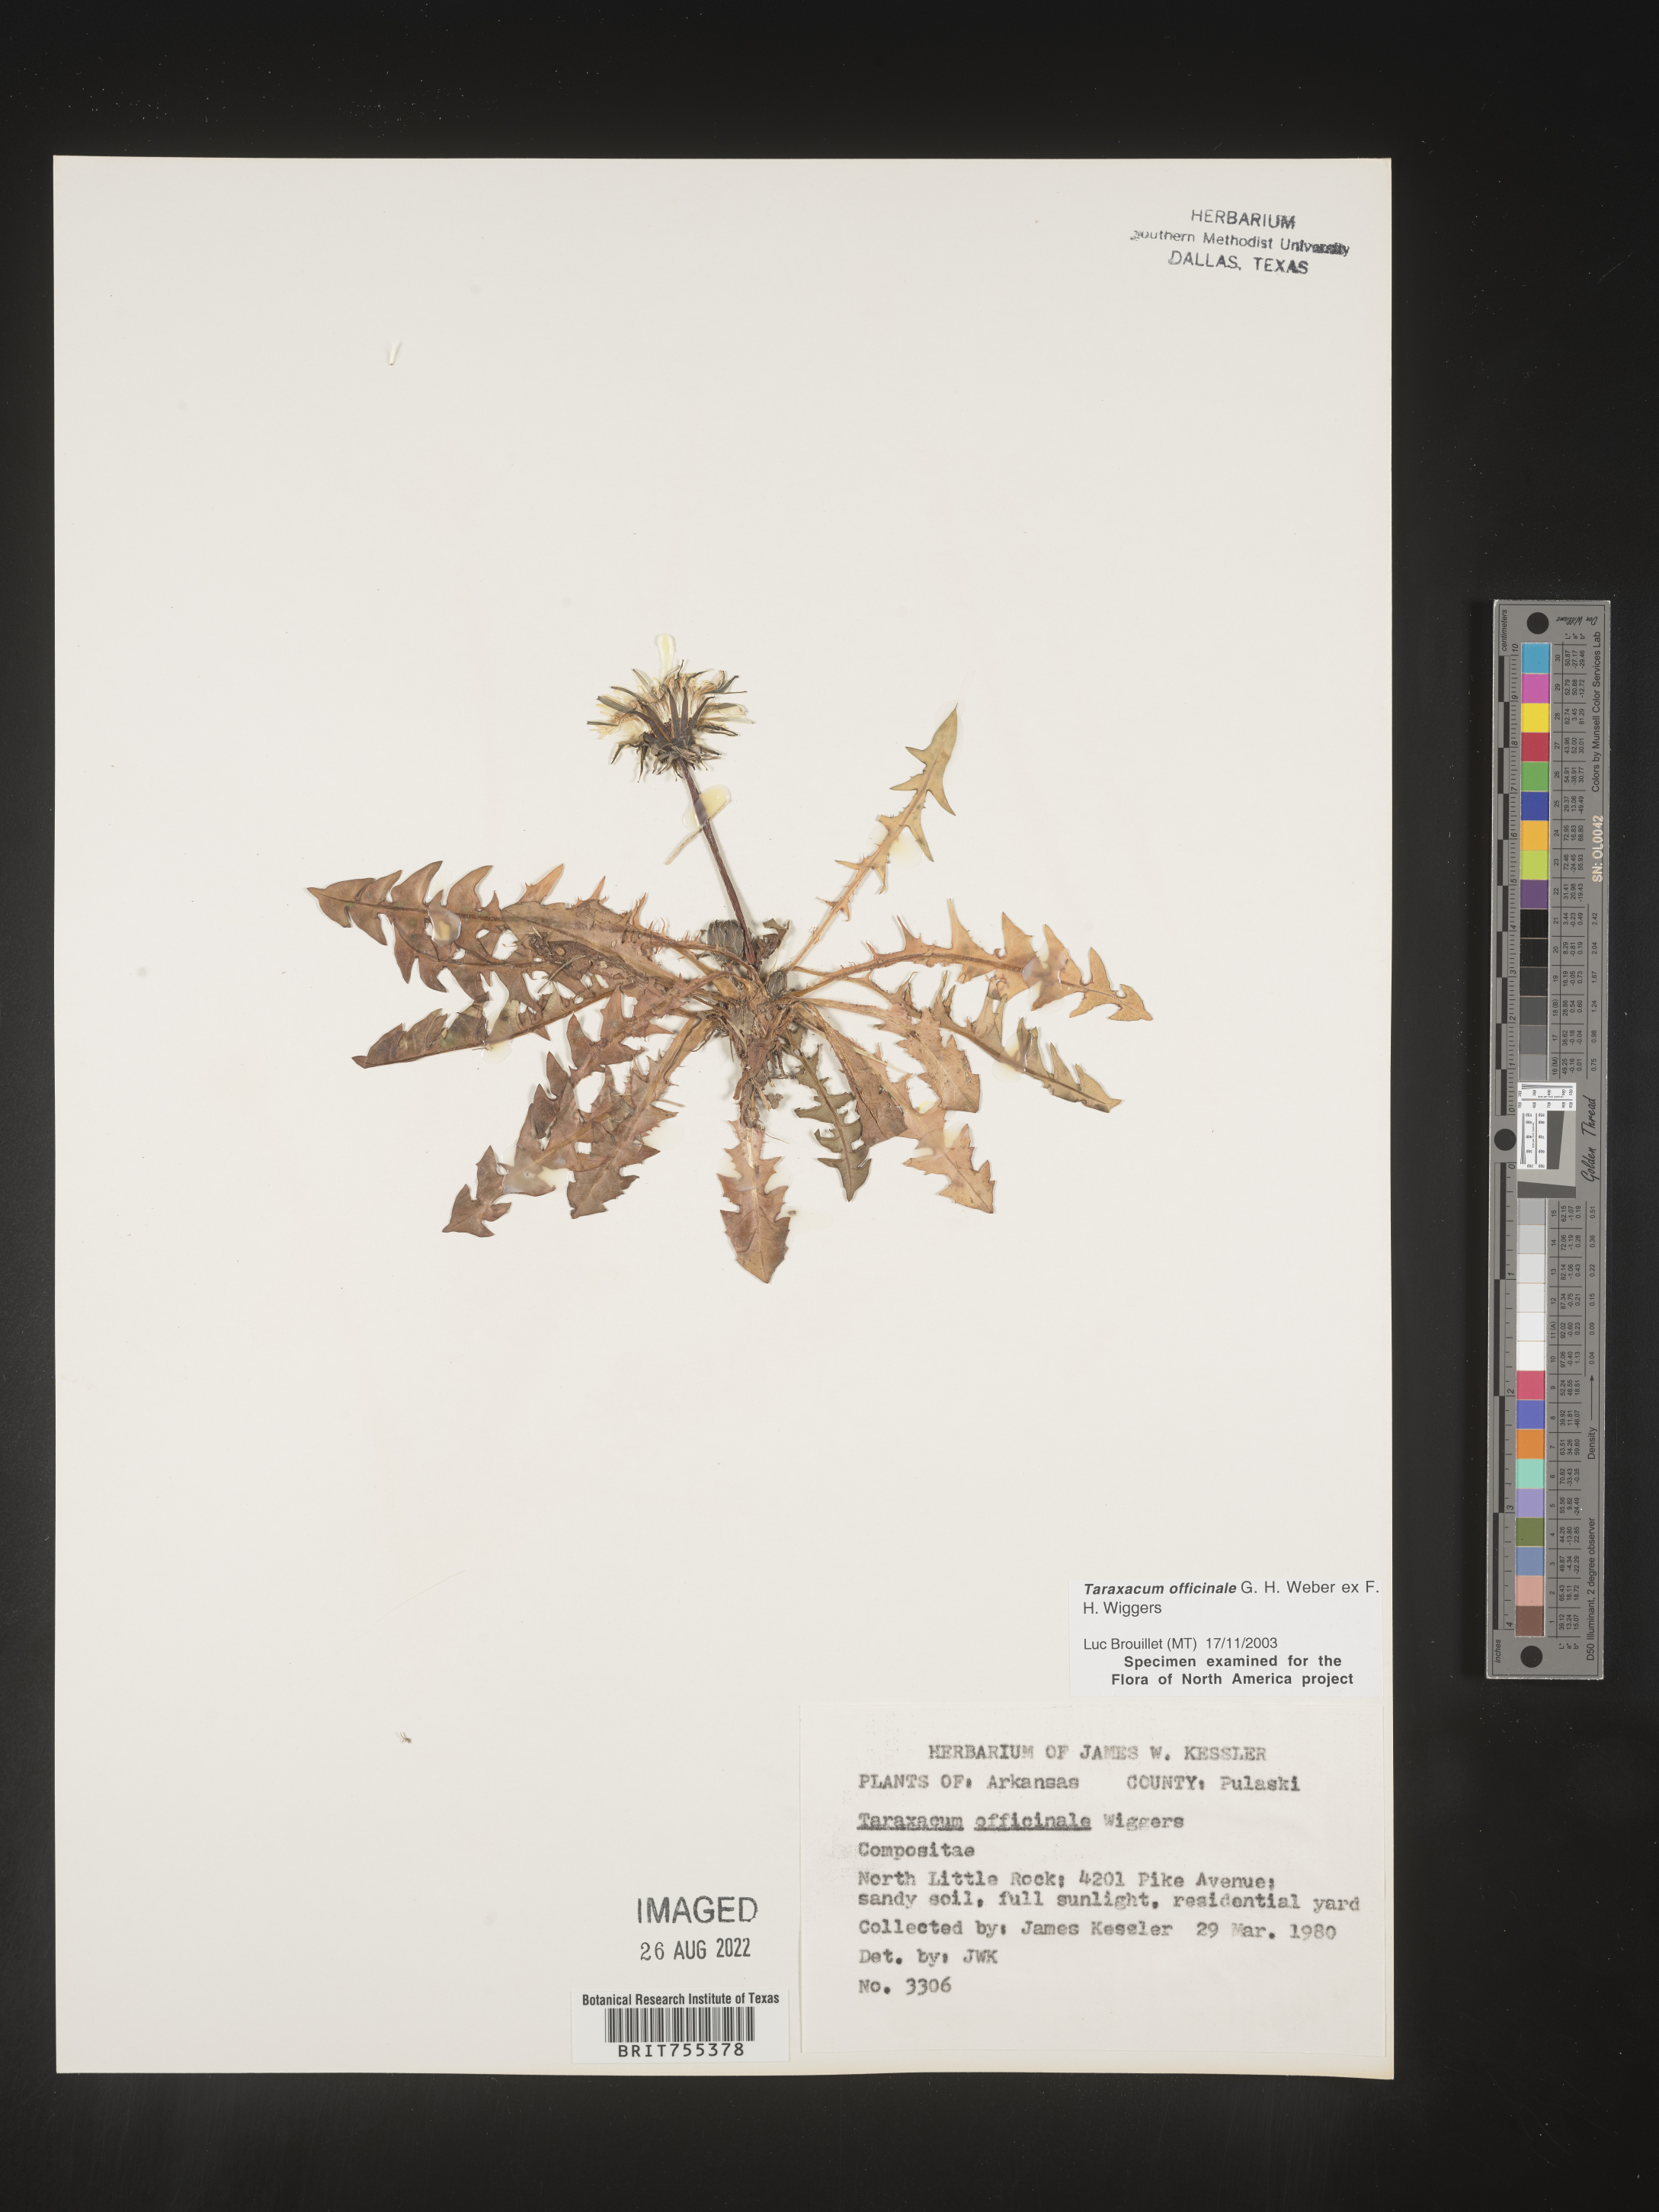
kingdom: Plantae
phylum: Tracheophyta
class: Magnoliopsida
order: Asterales
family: Asteraceae
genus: Taraxacum
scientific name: Taraxacum officinale
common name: Common dandelion
